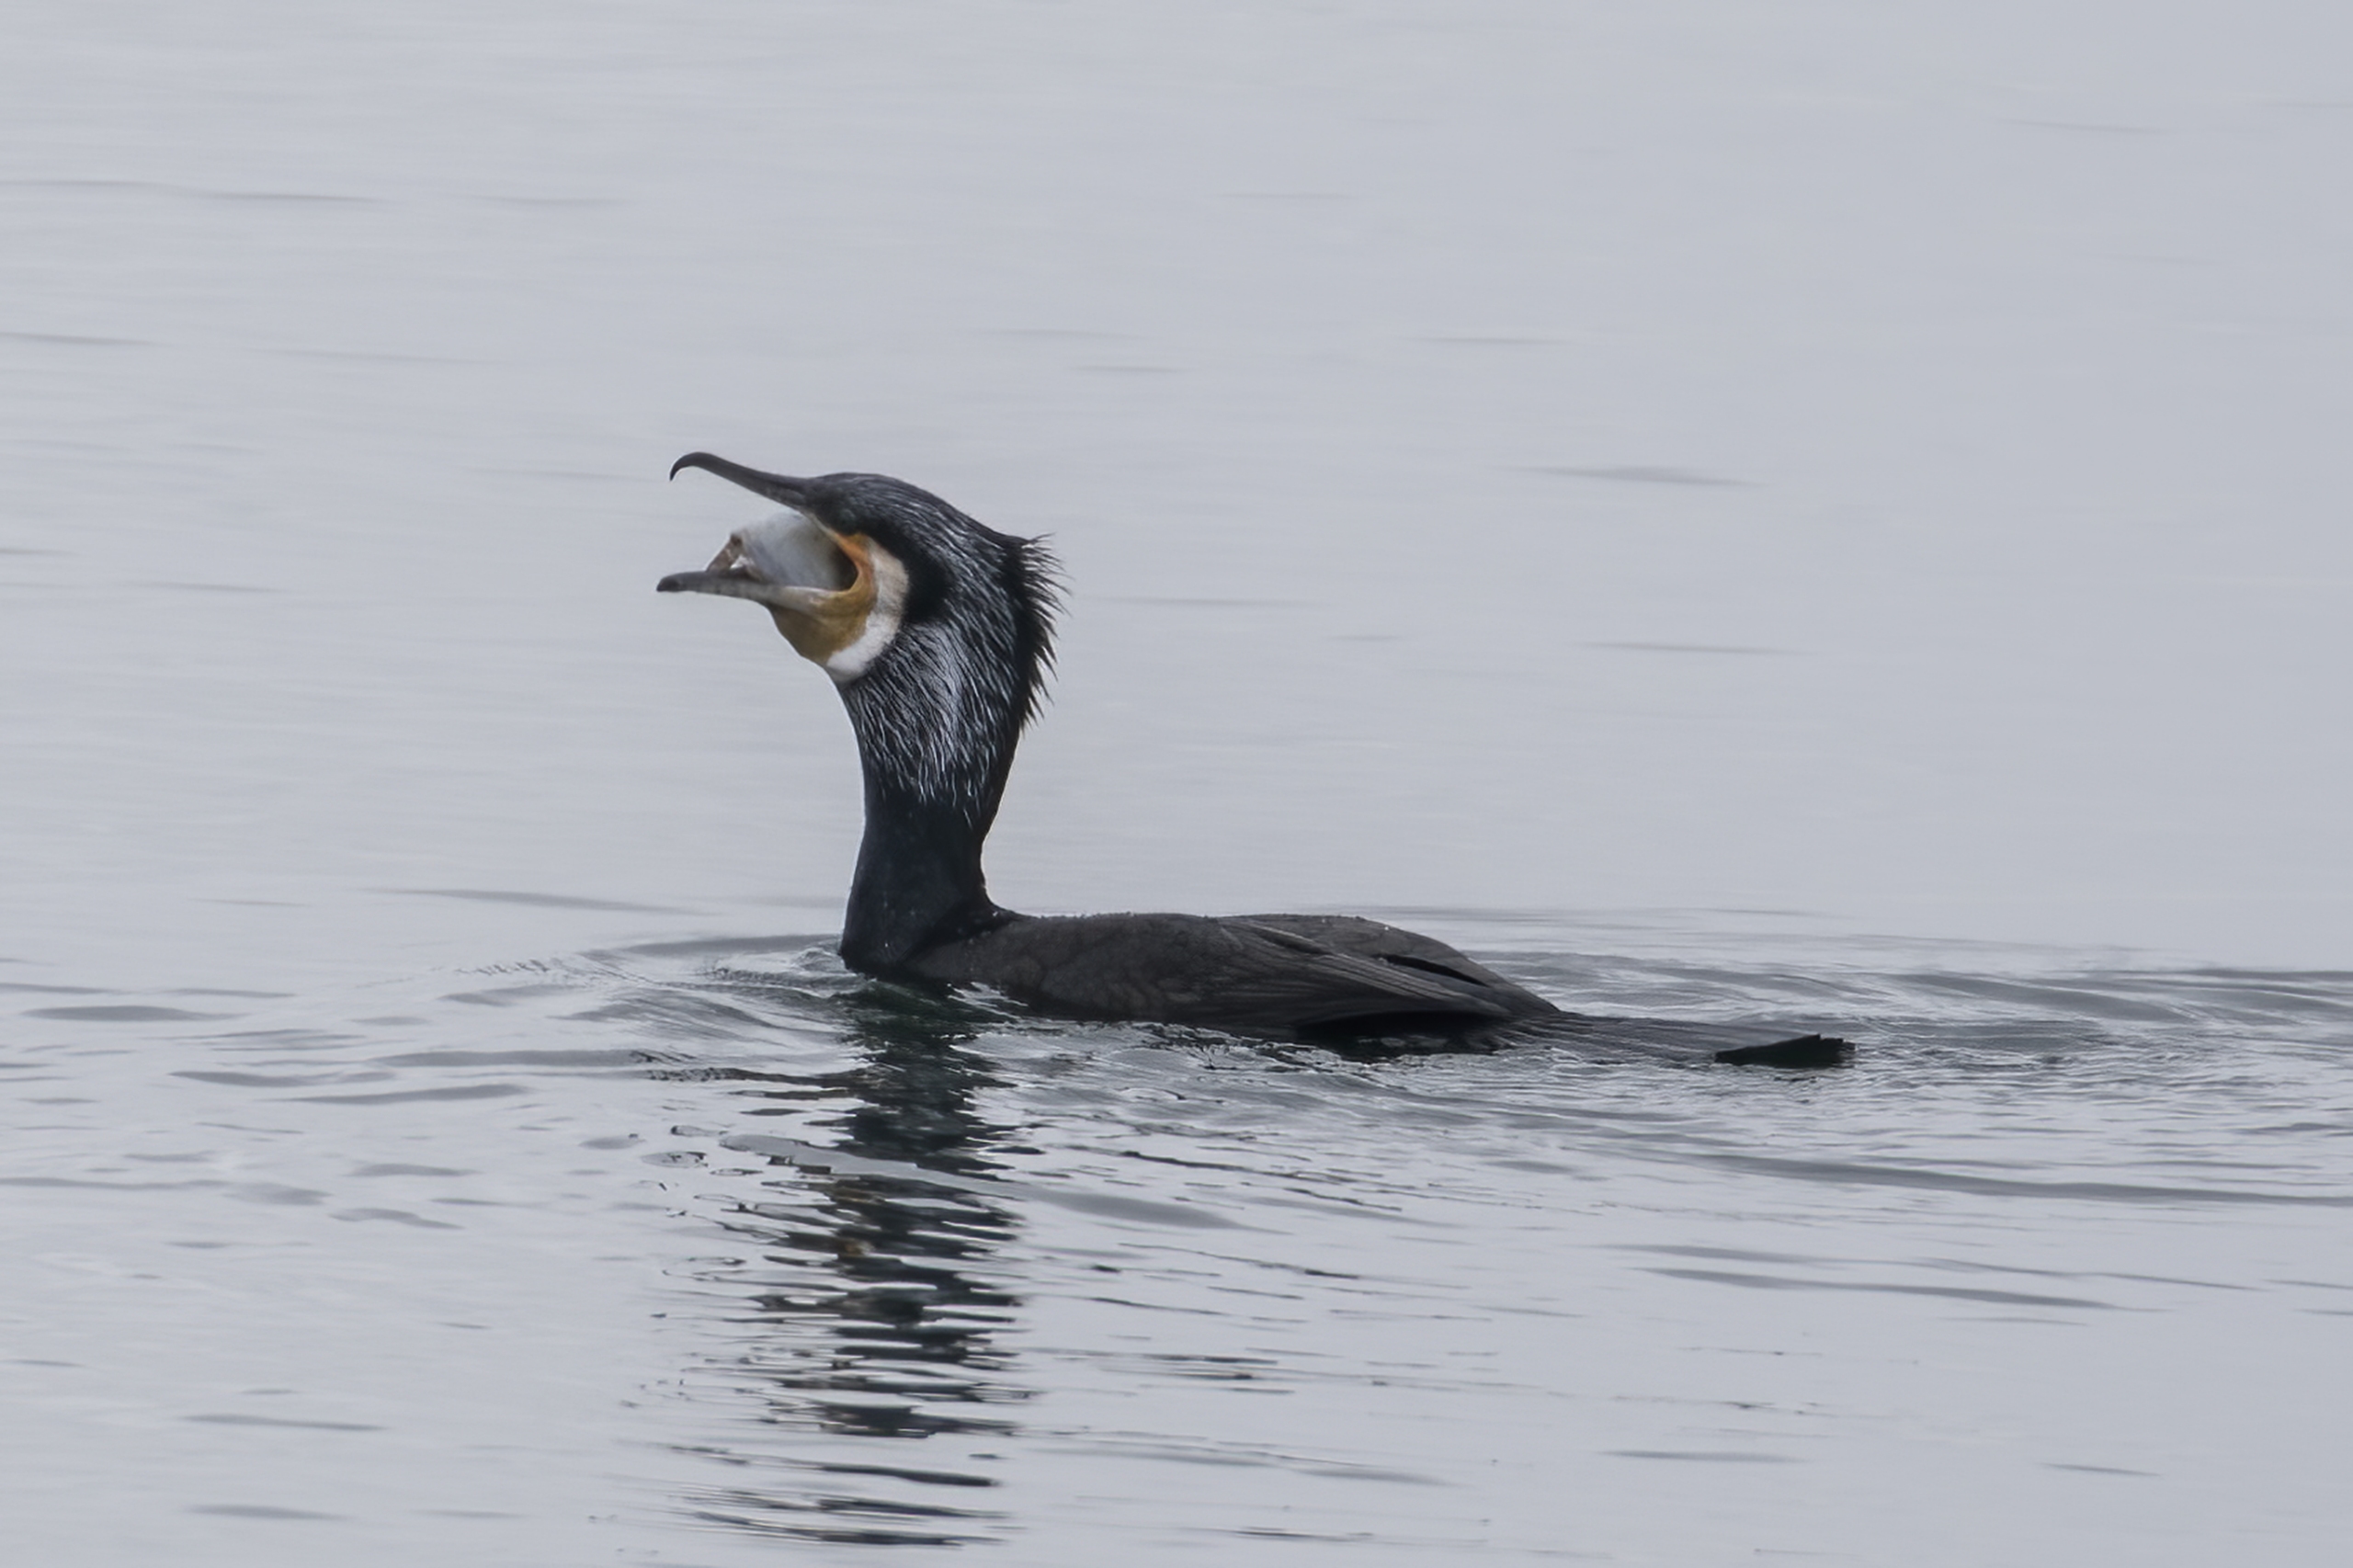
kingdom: Animalia
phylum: Chordata
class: Aves
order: Suliformes
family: Phalacrocoracidae
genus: Phalacrocorax
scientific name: Phalacrocorax carbo
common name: Skarv
